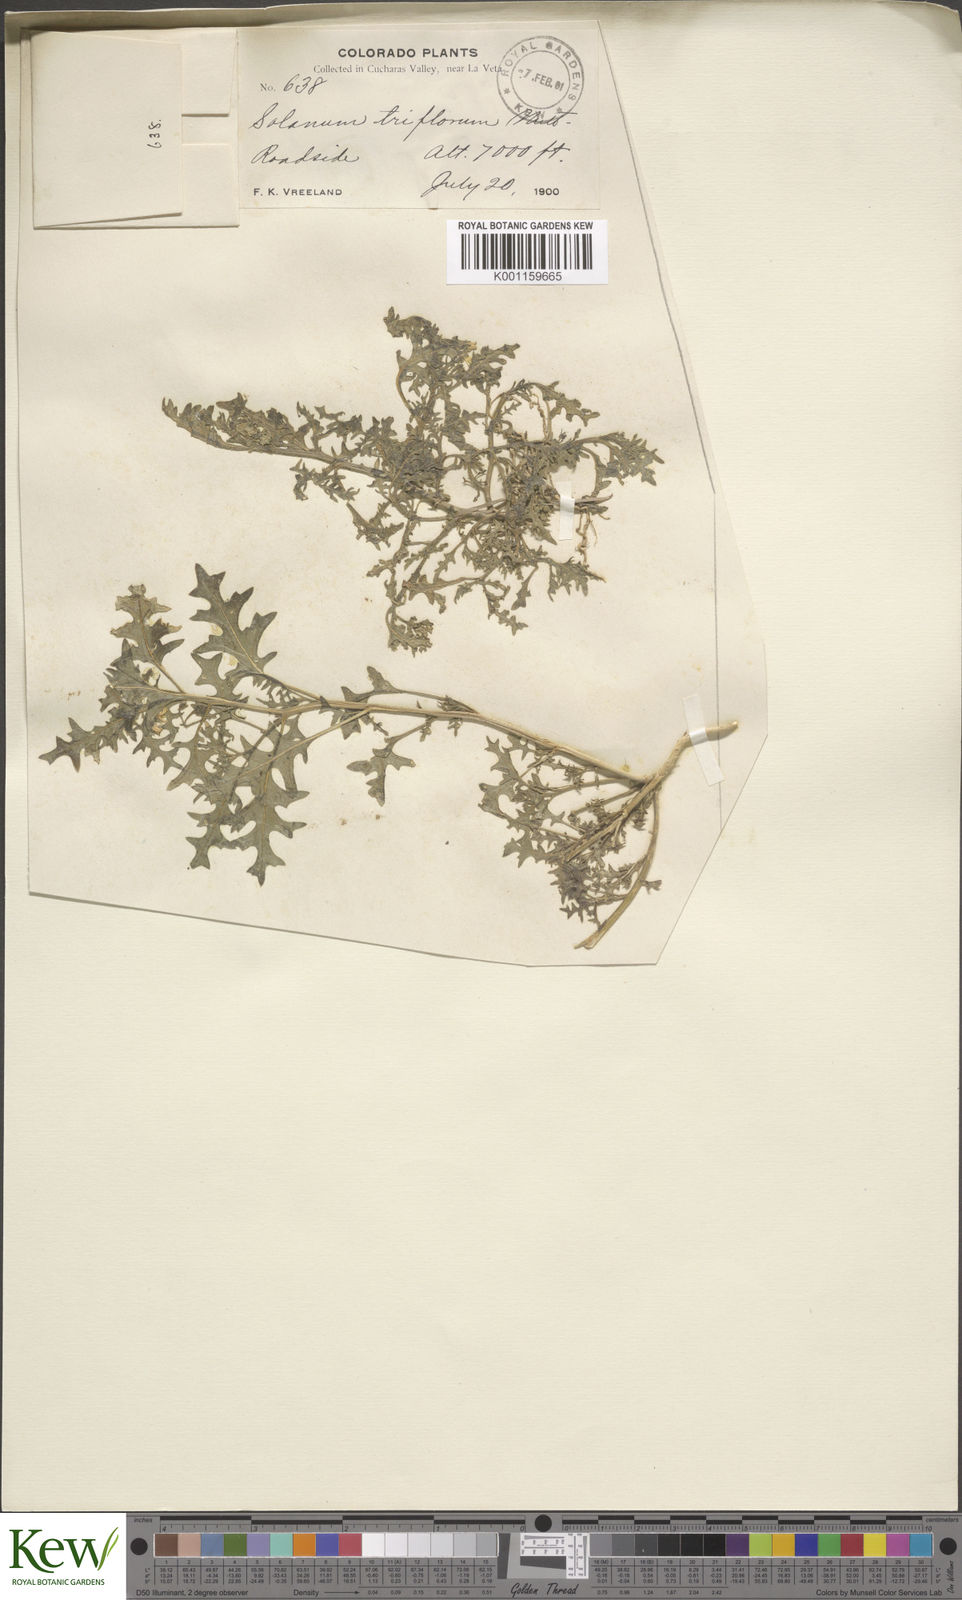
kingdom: Plantae
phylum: Tracheophyta
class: Magnoliopsida
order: Solanales
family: Solanaceae
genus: Solanum
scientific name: Solanum triflorum
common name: Small nightshade
